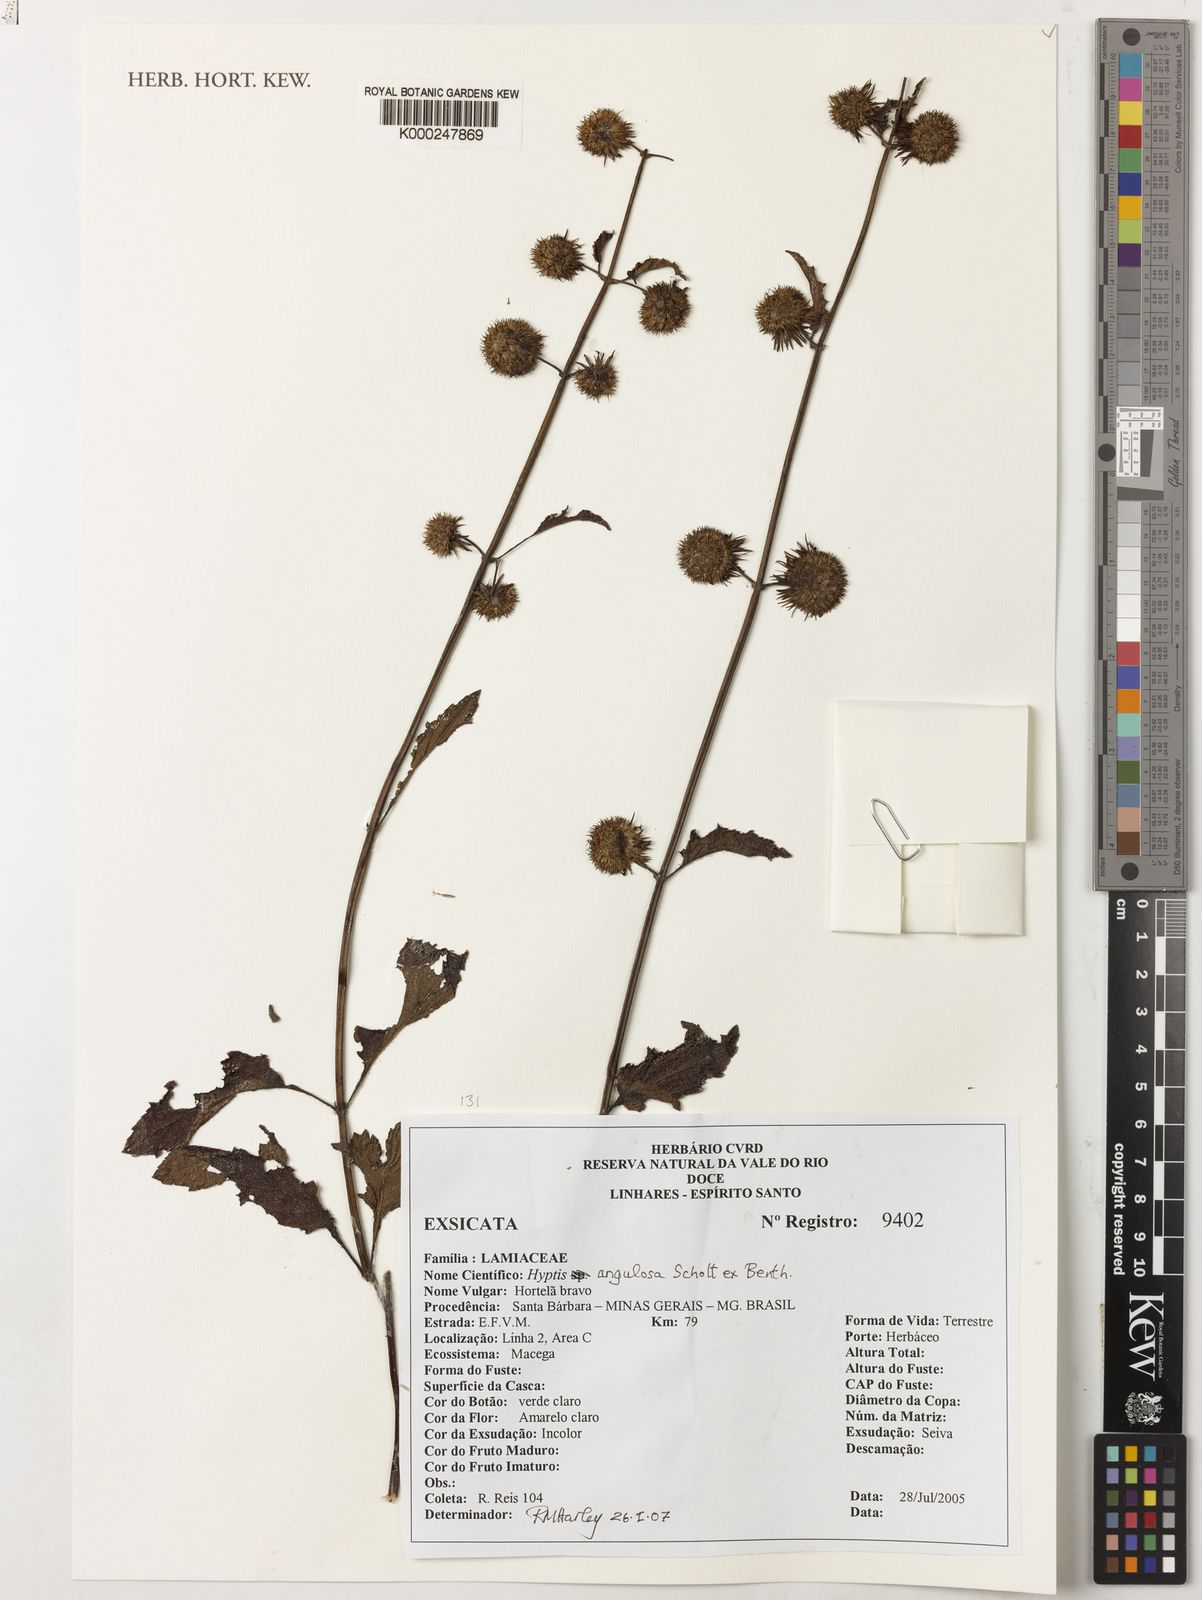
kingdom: Plantae
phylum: Tracheophyta
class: Magnoliopsida
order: Lamiales
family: Lamiaceae
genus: Hyptis
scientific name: Hyptis angulosa
